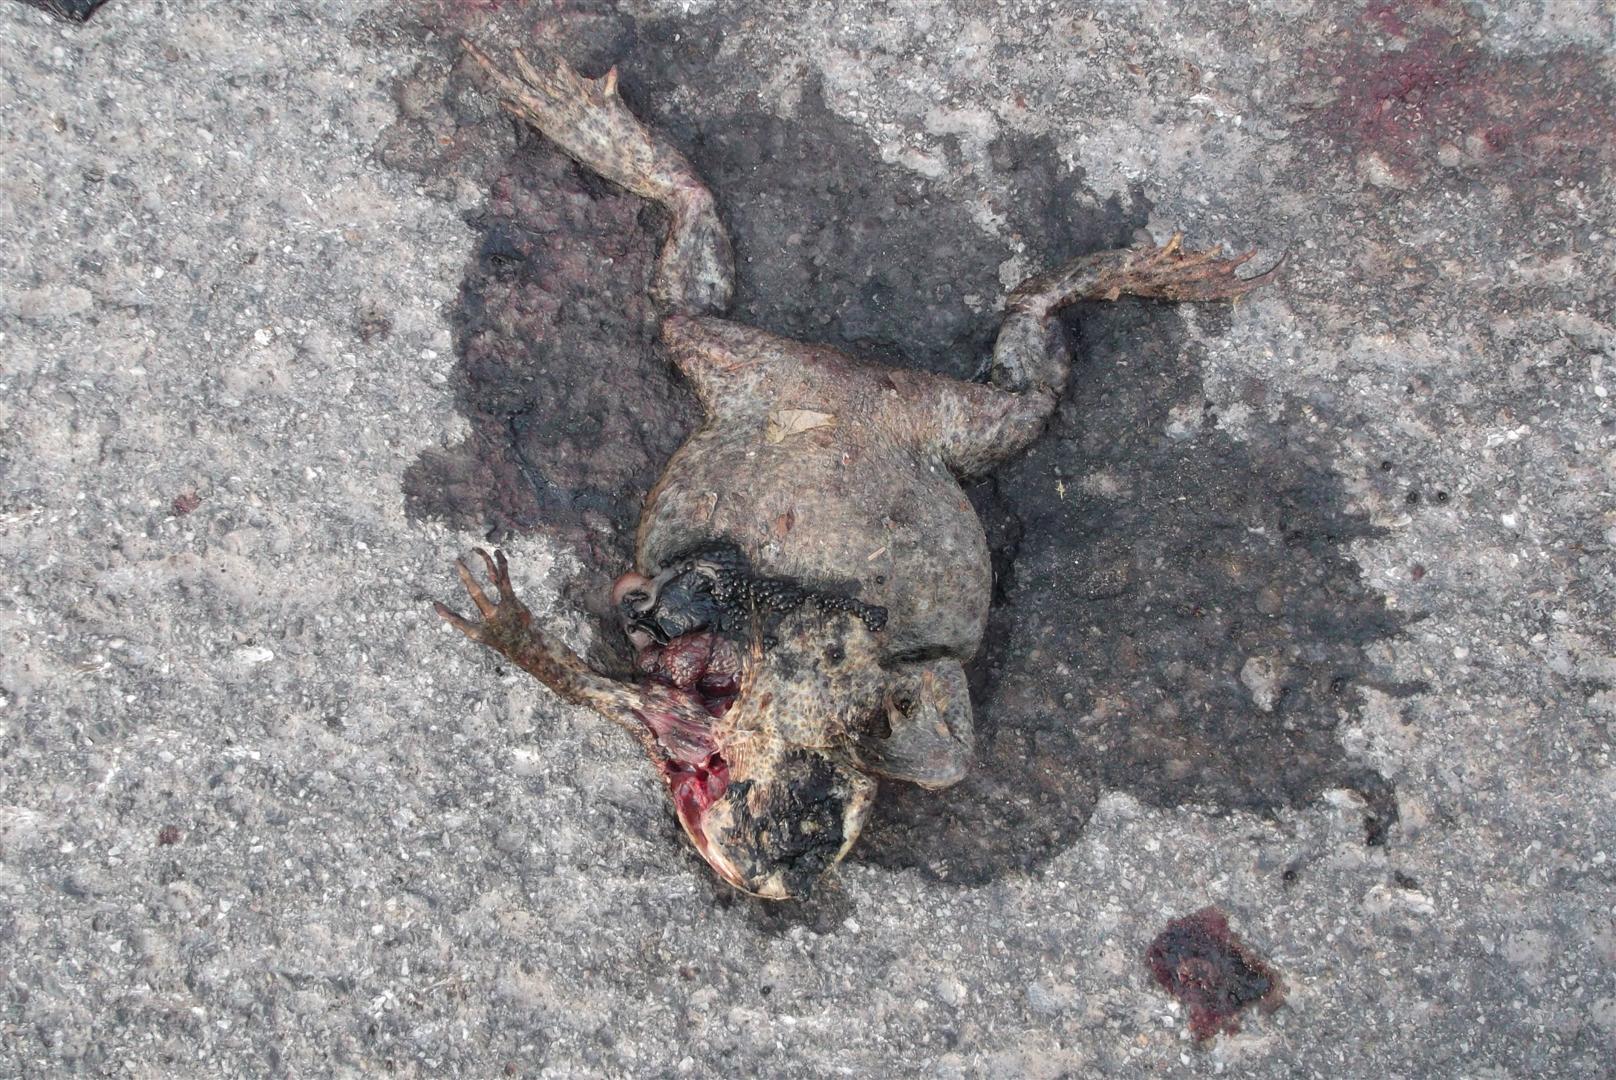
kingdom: Animalia
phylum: Chordata
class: Amphibia
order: Anura
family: Bufonidae
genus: Bufo
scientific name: Bufo bufo
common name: Common toad
